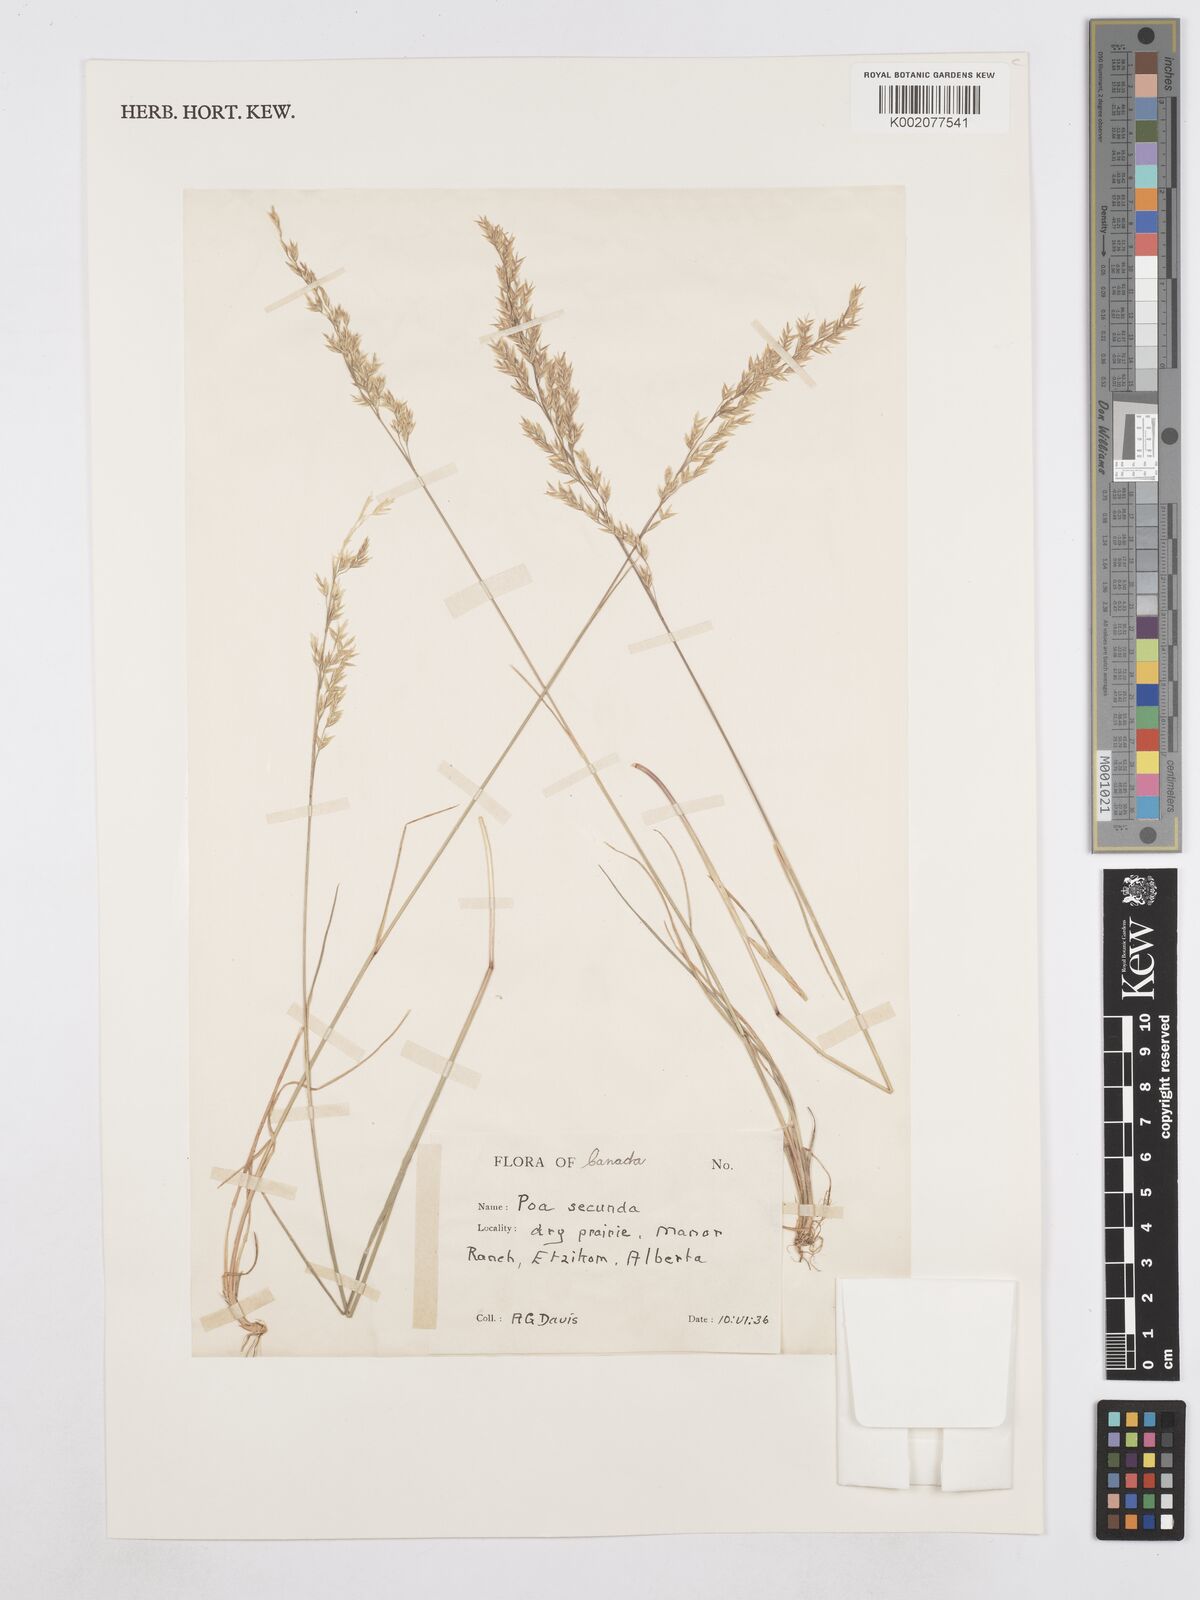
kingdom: Plantae
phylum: Tracheophyta
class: Liliopsida
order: Poales
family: Poaceae
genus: Poa
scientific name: Poa secunda
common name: Sandberg bluegrass
